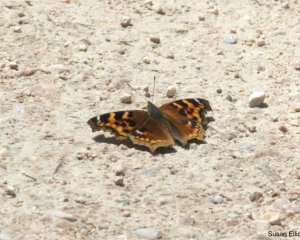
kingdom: Animalia
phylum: Arthropoda
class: Insecta
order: Lepidoptera
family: Nymphalidae
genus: Polygonia
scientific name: Polygonia vaualbum
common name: Compton Tortoiseshell
